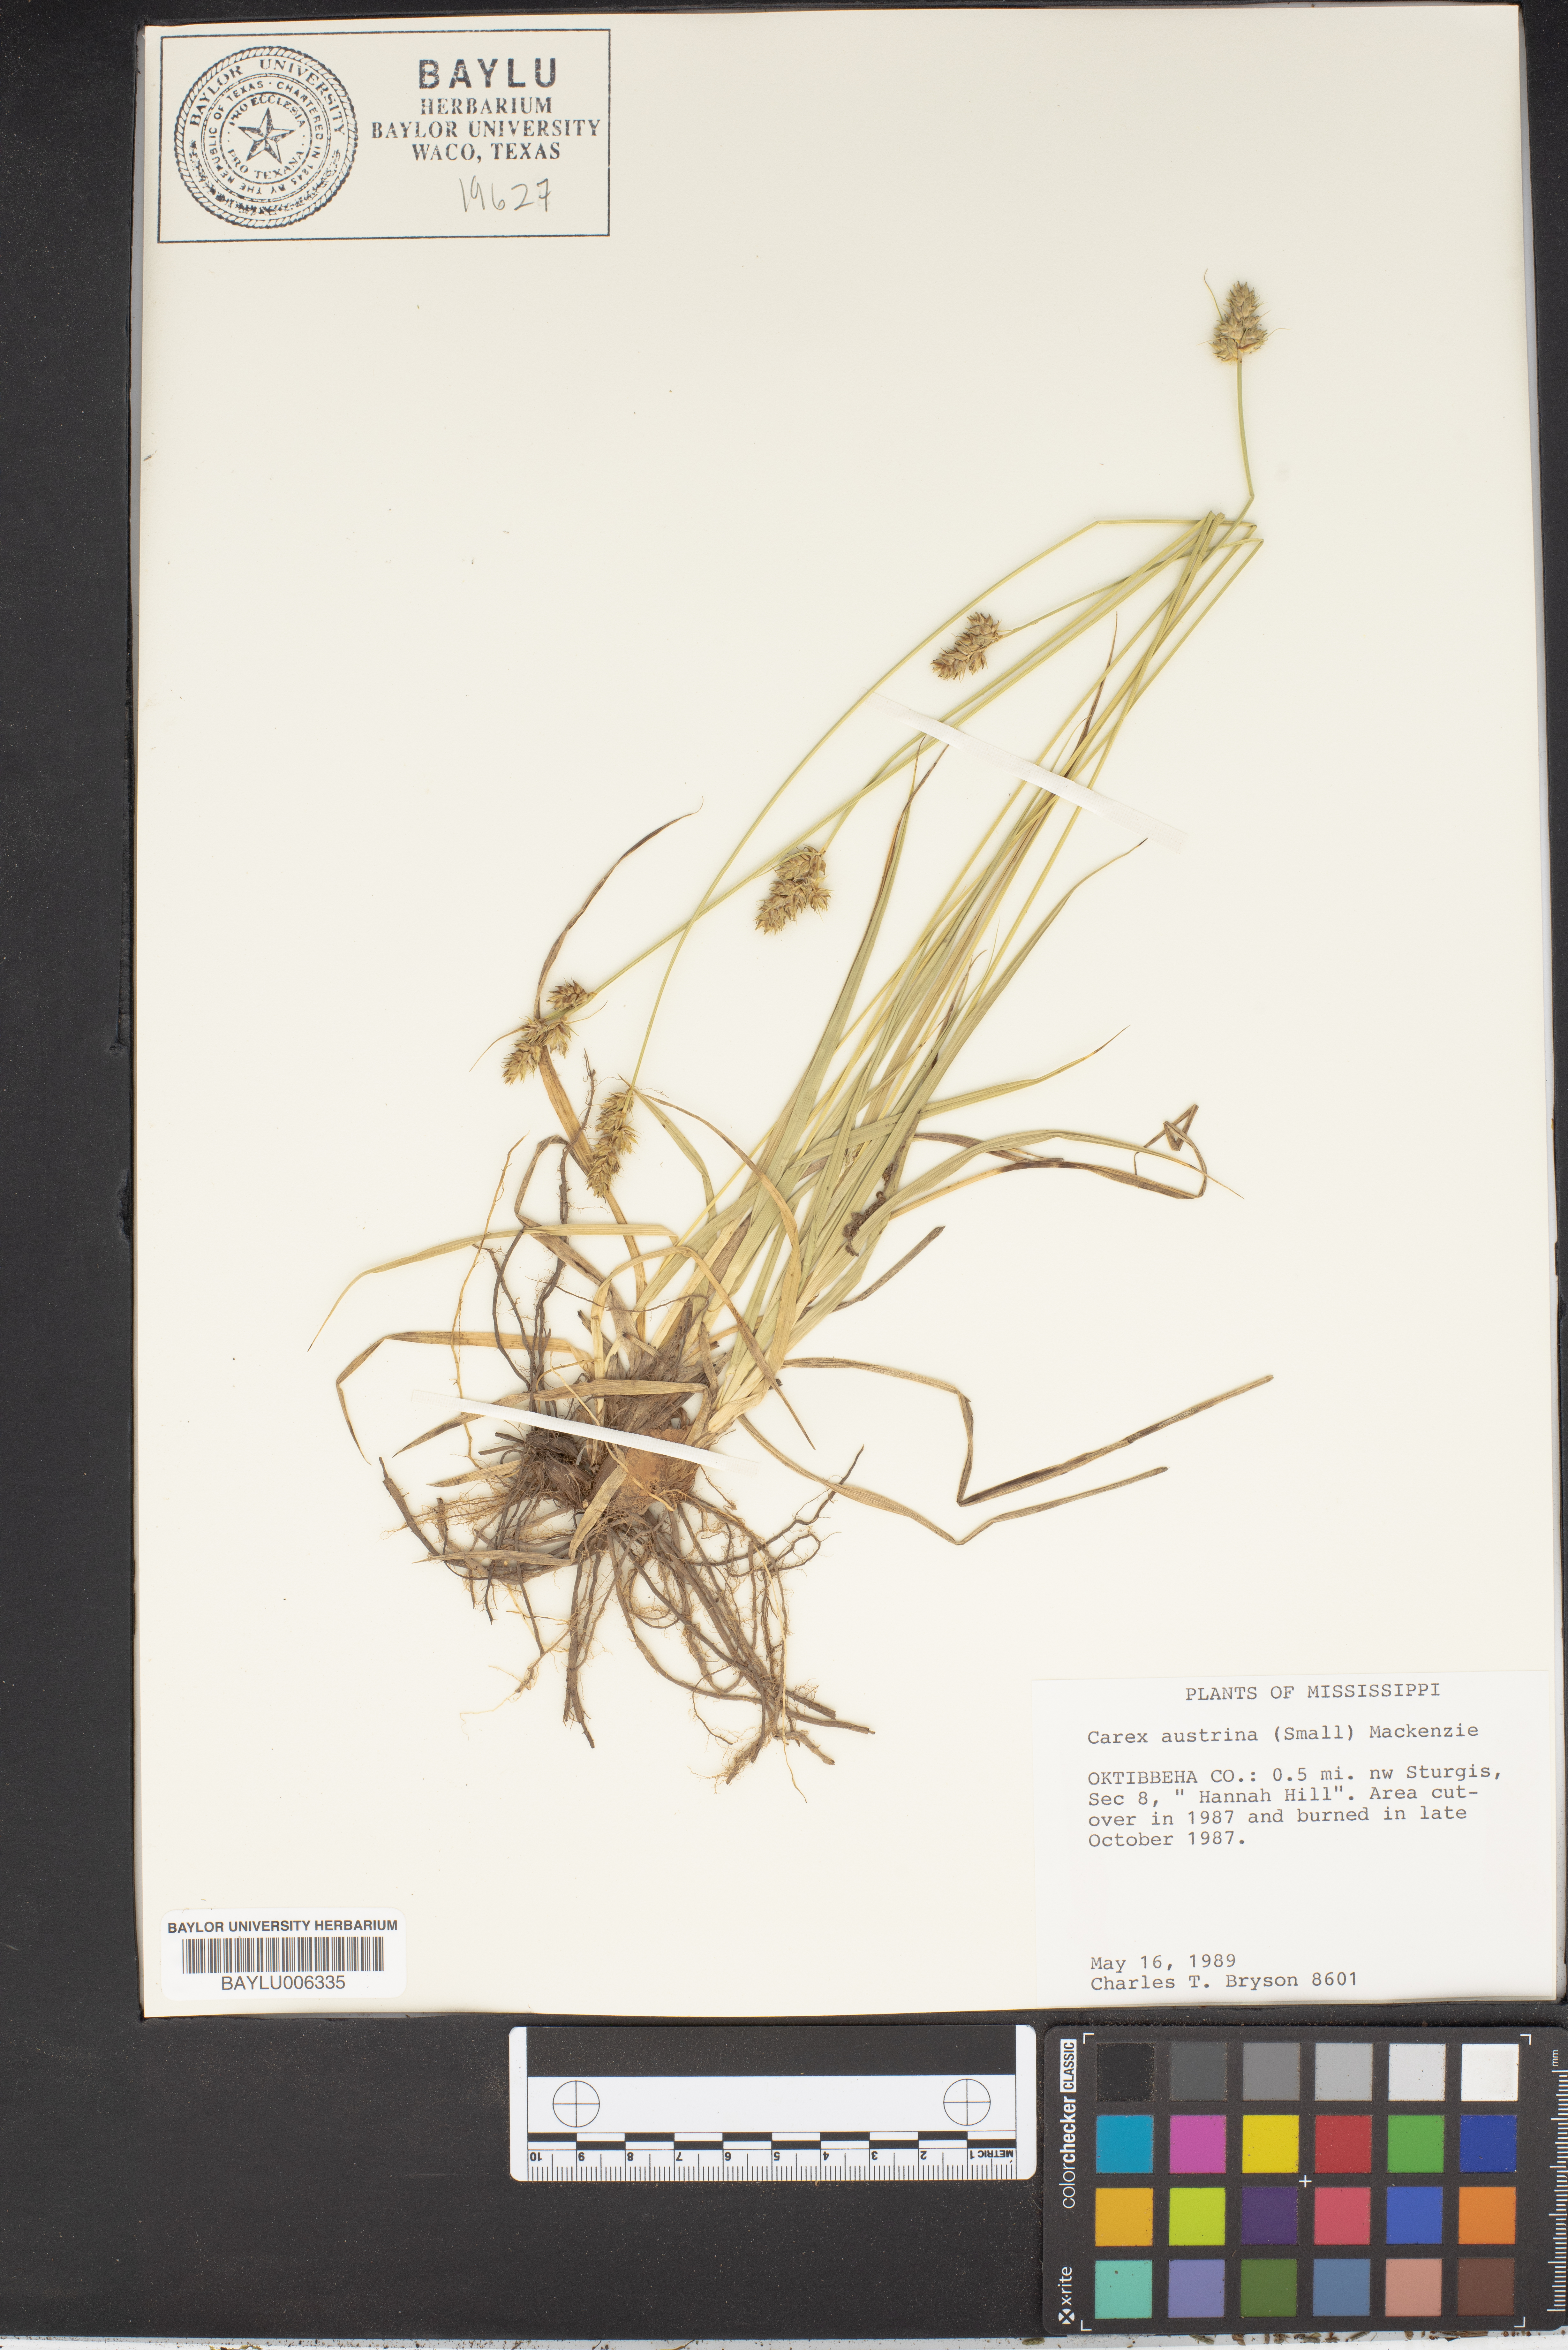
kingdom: Plantae
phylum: Tracheophyta
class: Liliopsida
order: Poales
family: Cyperaceae
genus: Carex
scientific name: Carex austrina
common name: Southern sedge
